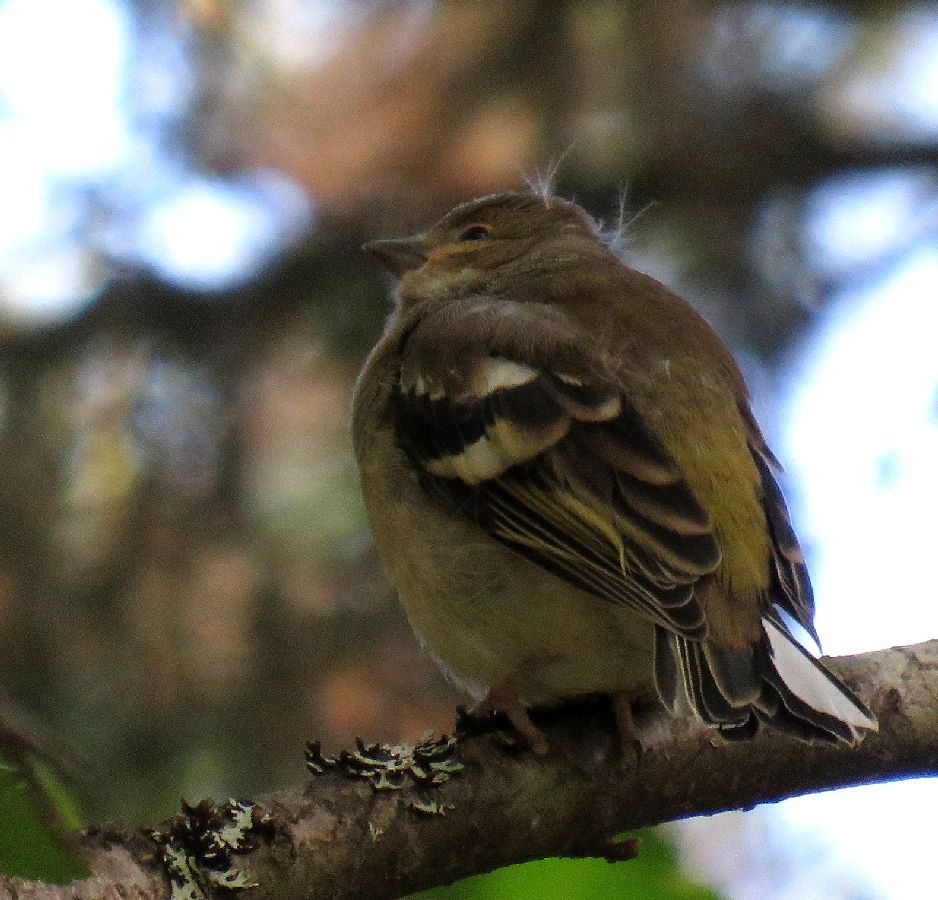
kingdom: Animalia
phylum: Chordata
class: Aves
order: Passeriformes
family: Fringillidae
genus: Fringilla
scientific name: Fringilla coelebs
